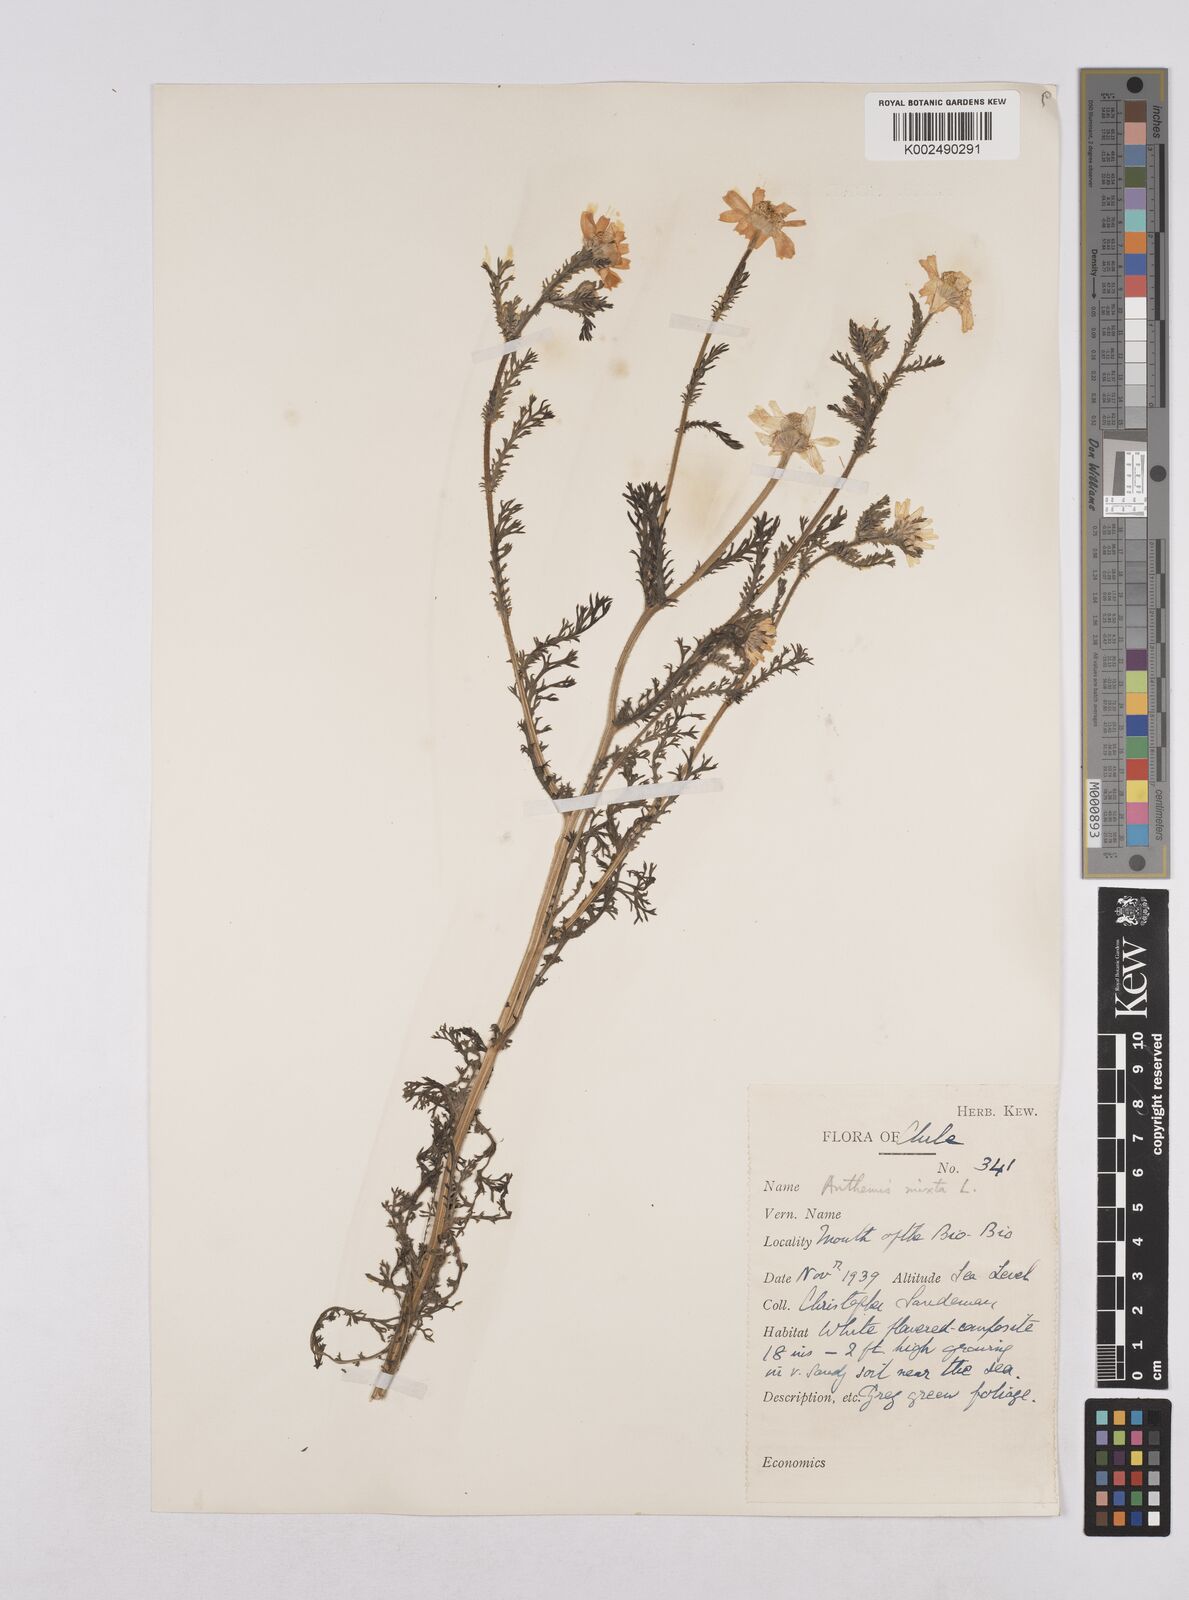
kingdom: Plantae
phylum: Tracheophyta
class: Magnoliopsida
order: Asterales
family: Asteraceae
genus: Cladanthus
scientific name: Cladanthus mixtus
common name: Weedy dogfennel
